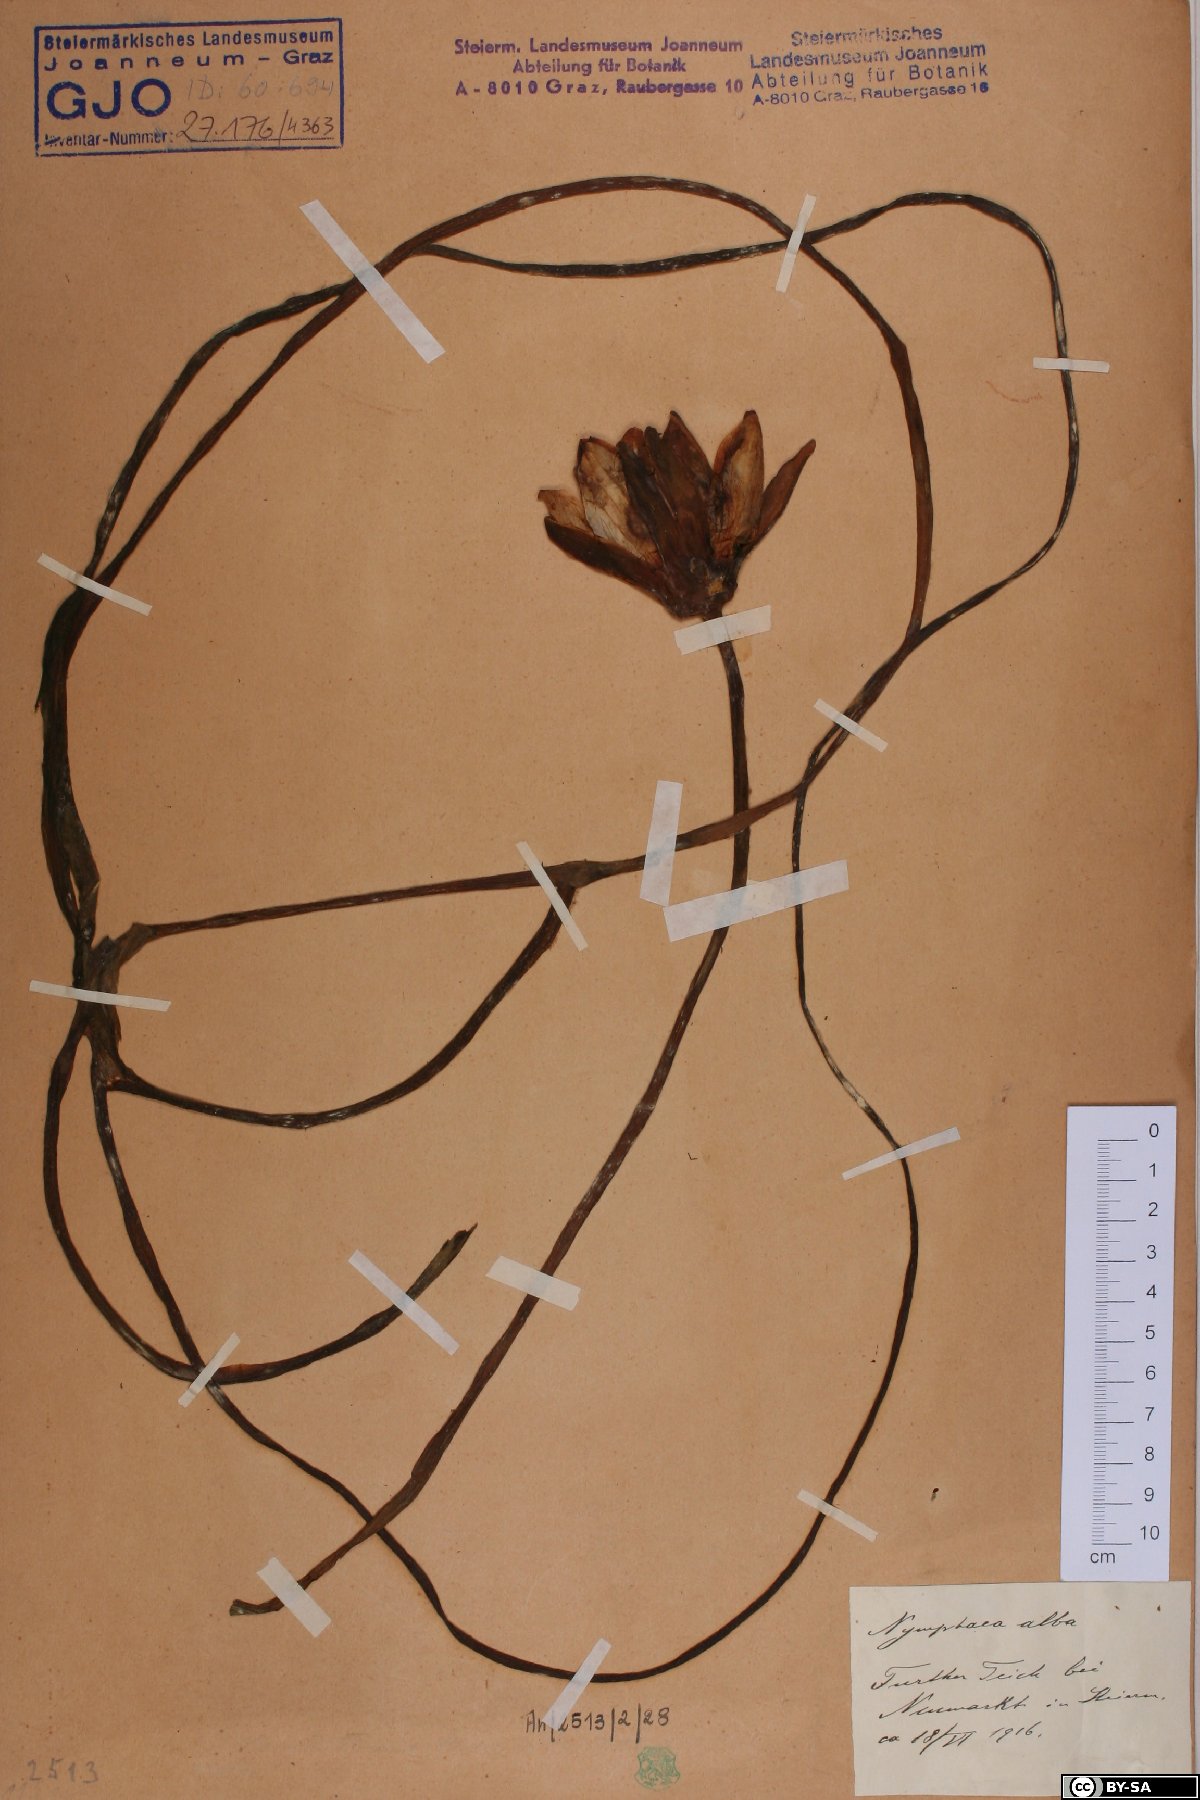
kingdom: Plantae
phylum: Tracheophyta
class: Magnoliopsida
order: Nymphaeales
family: Nymphaeaceae
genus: Nymphaea
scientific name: Nymphaea alba
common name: White water-lily
